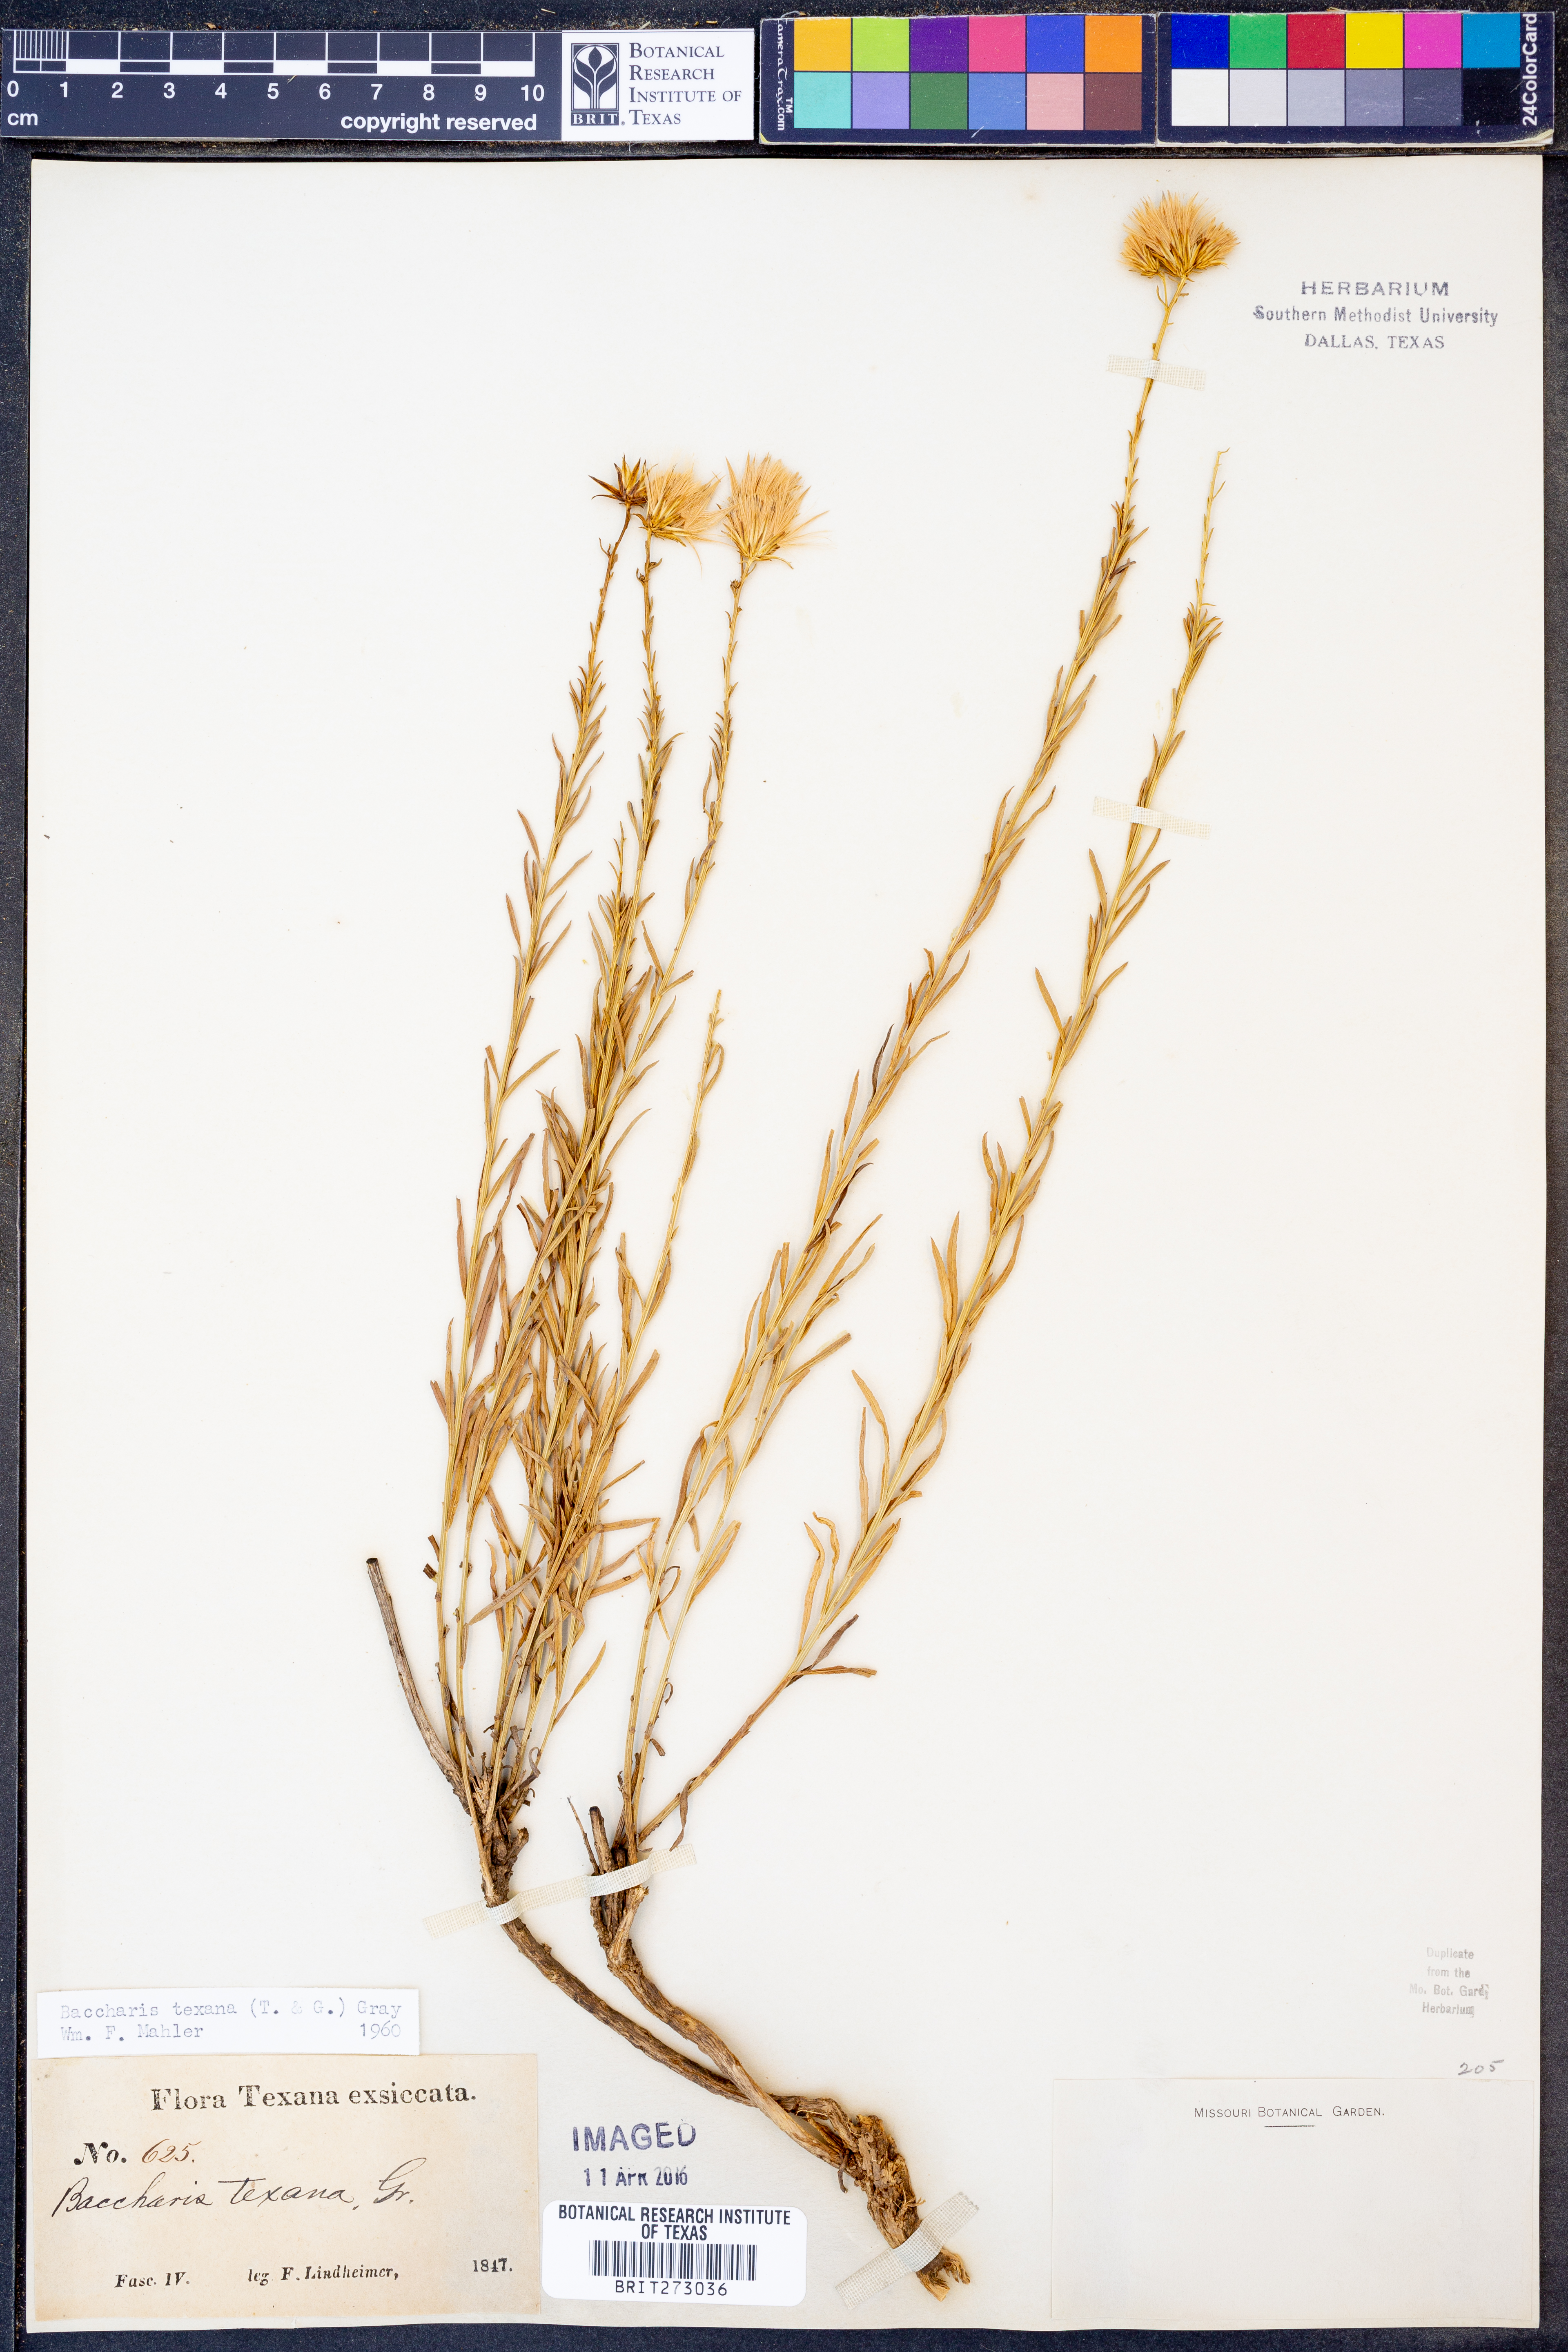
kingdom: Plantae
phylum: Tracheophyta
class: Magnoliopsida
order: Asterales
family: Asteraceae
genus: Baccharis
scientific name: Baccharis texana
